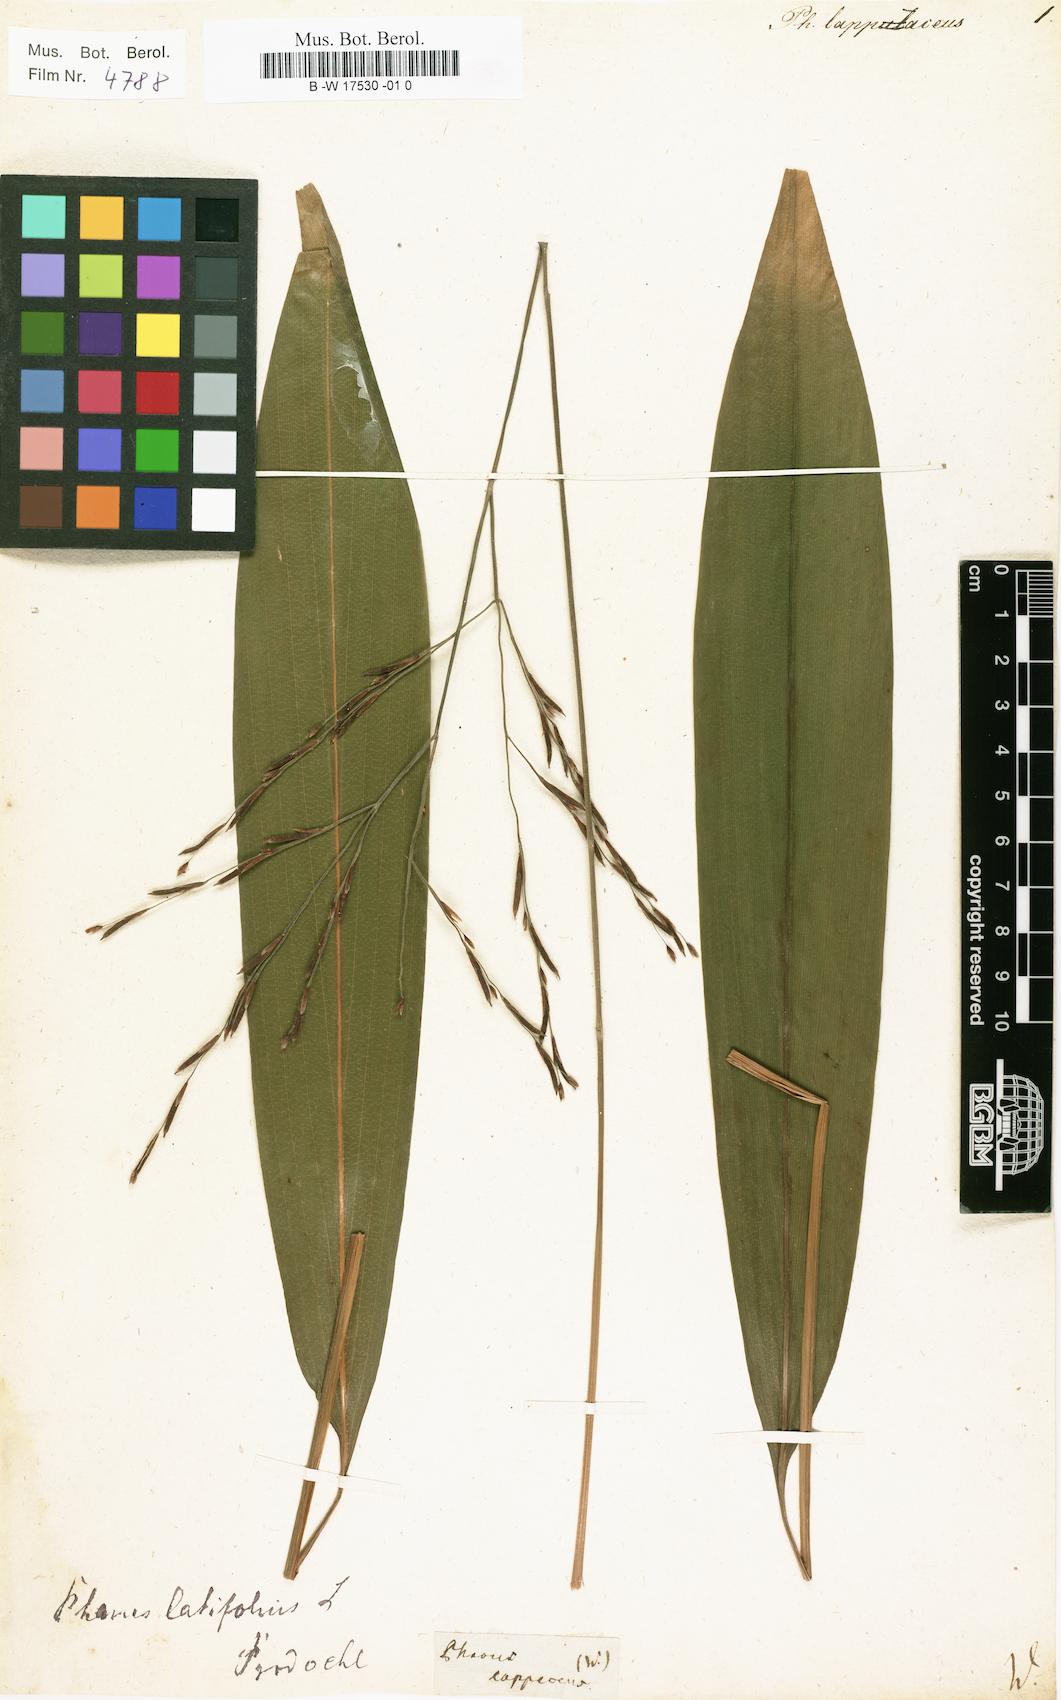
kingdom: Plantae
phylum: Tracheophyta
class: Liliopsida
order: Poales
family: Poaceae
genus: Pharus
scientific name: Pharus lappulaceus
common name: Creeping leafstalk grass
